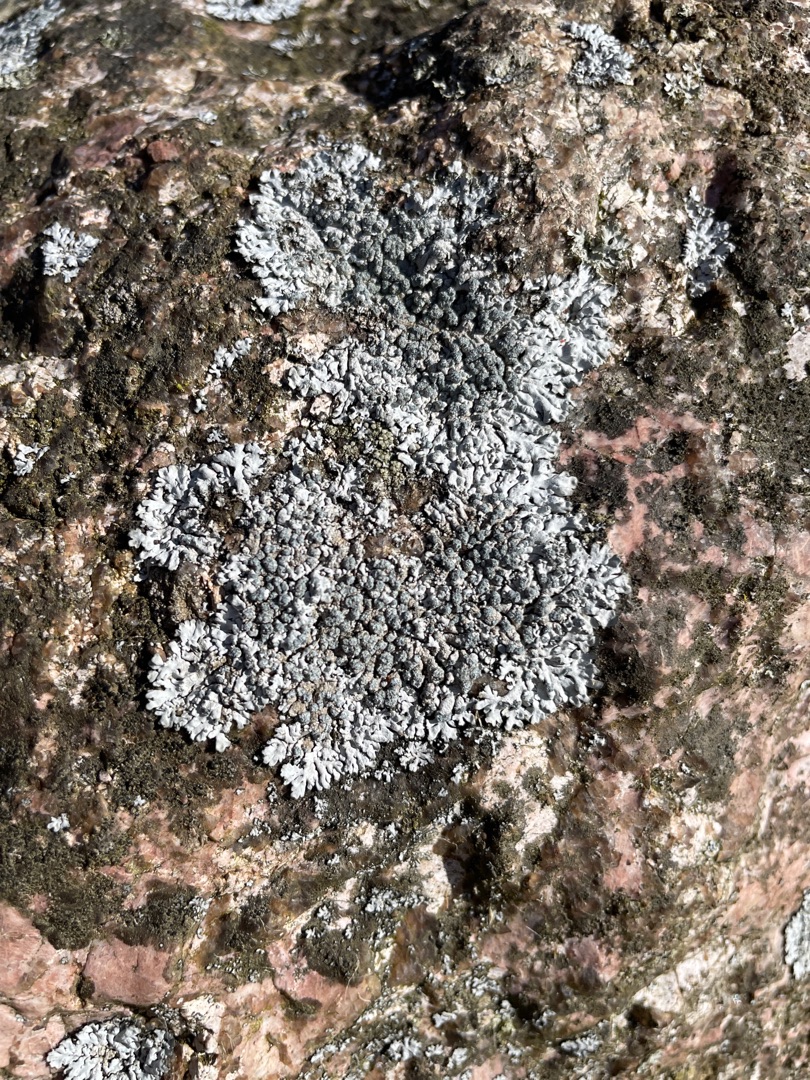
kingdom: Fungi
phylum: Ascomycota
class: Lecanoromycetes
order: Caliciales
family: Physciaceae
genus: Physcia
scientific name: Physcia caesia
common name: Blågrå rosetlav
